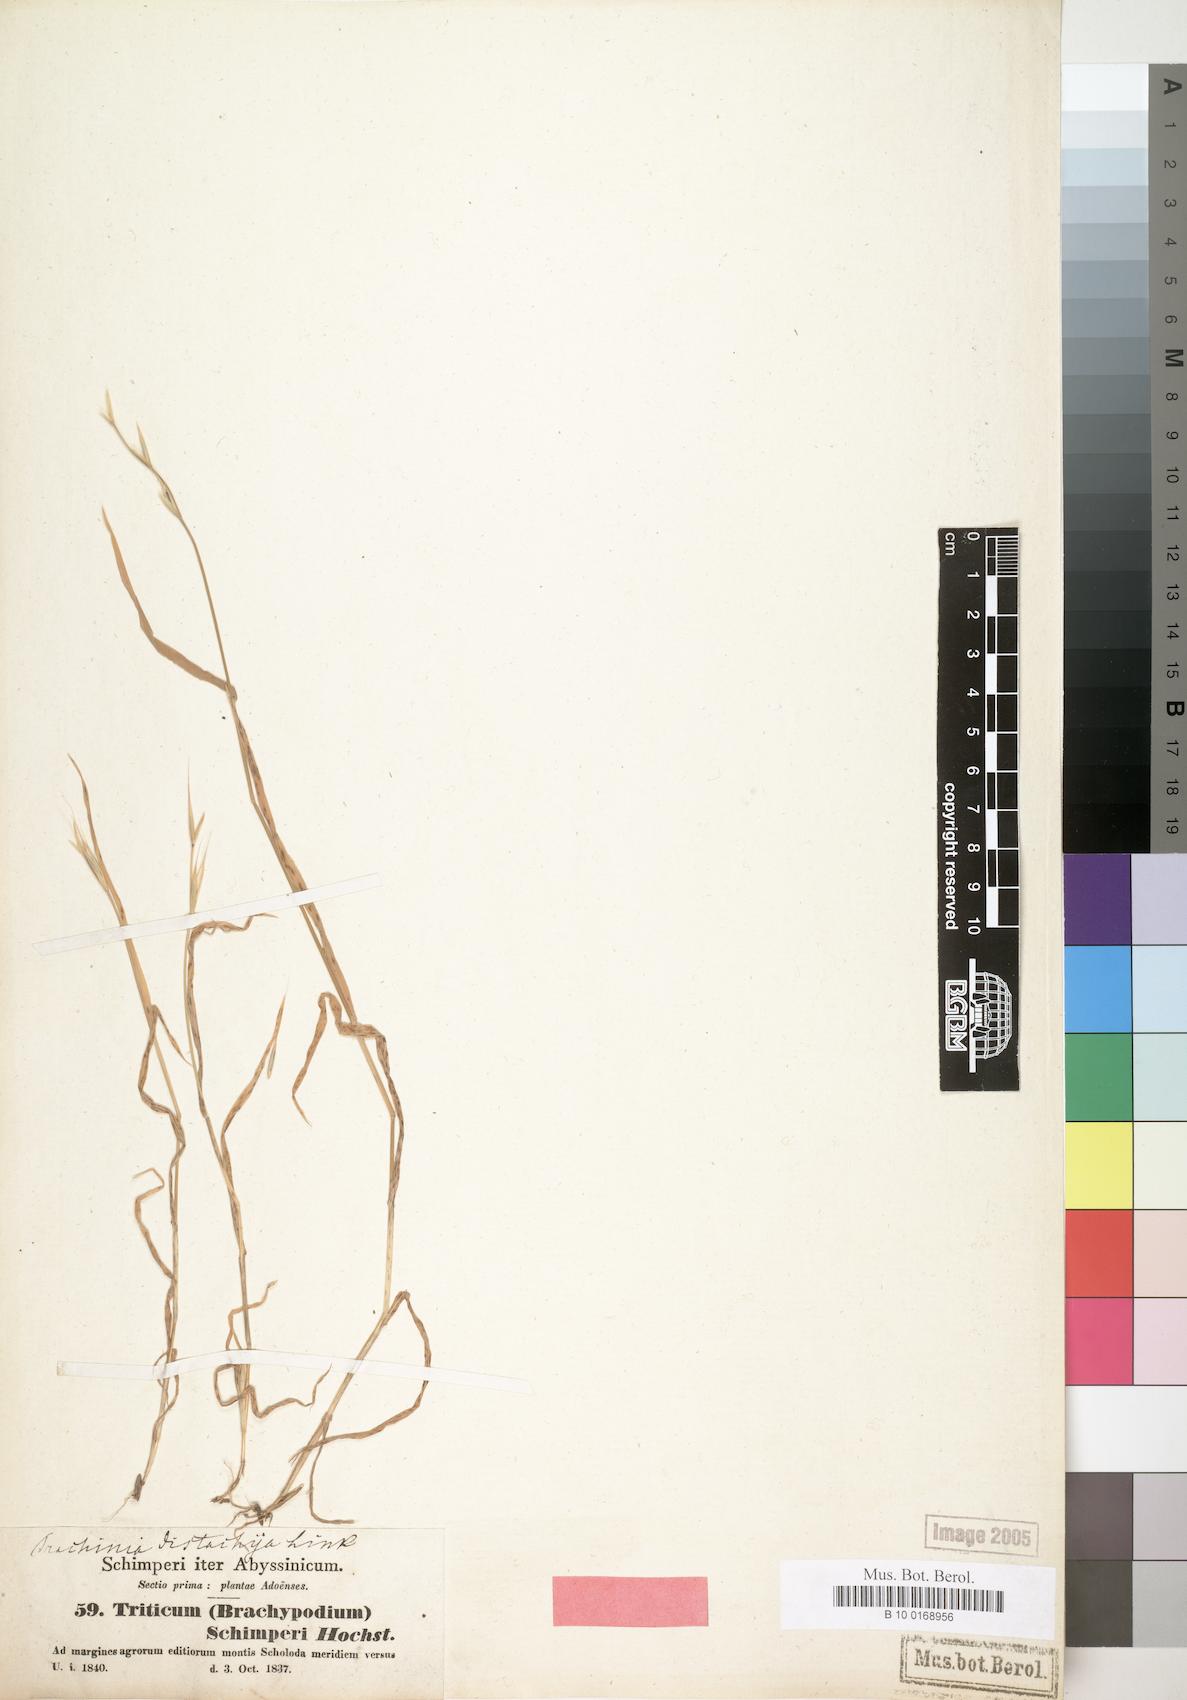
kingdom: Plantae
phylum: Tracheophyta
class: Liliopsida
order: Poales
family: Poaceae
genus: Triticum
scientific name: Triticum schimperi
